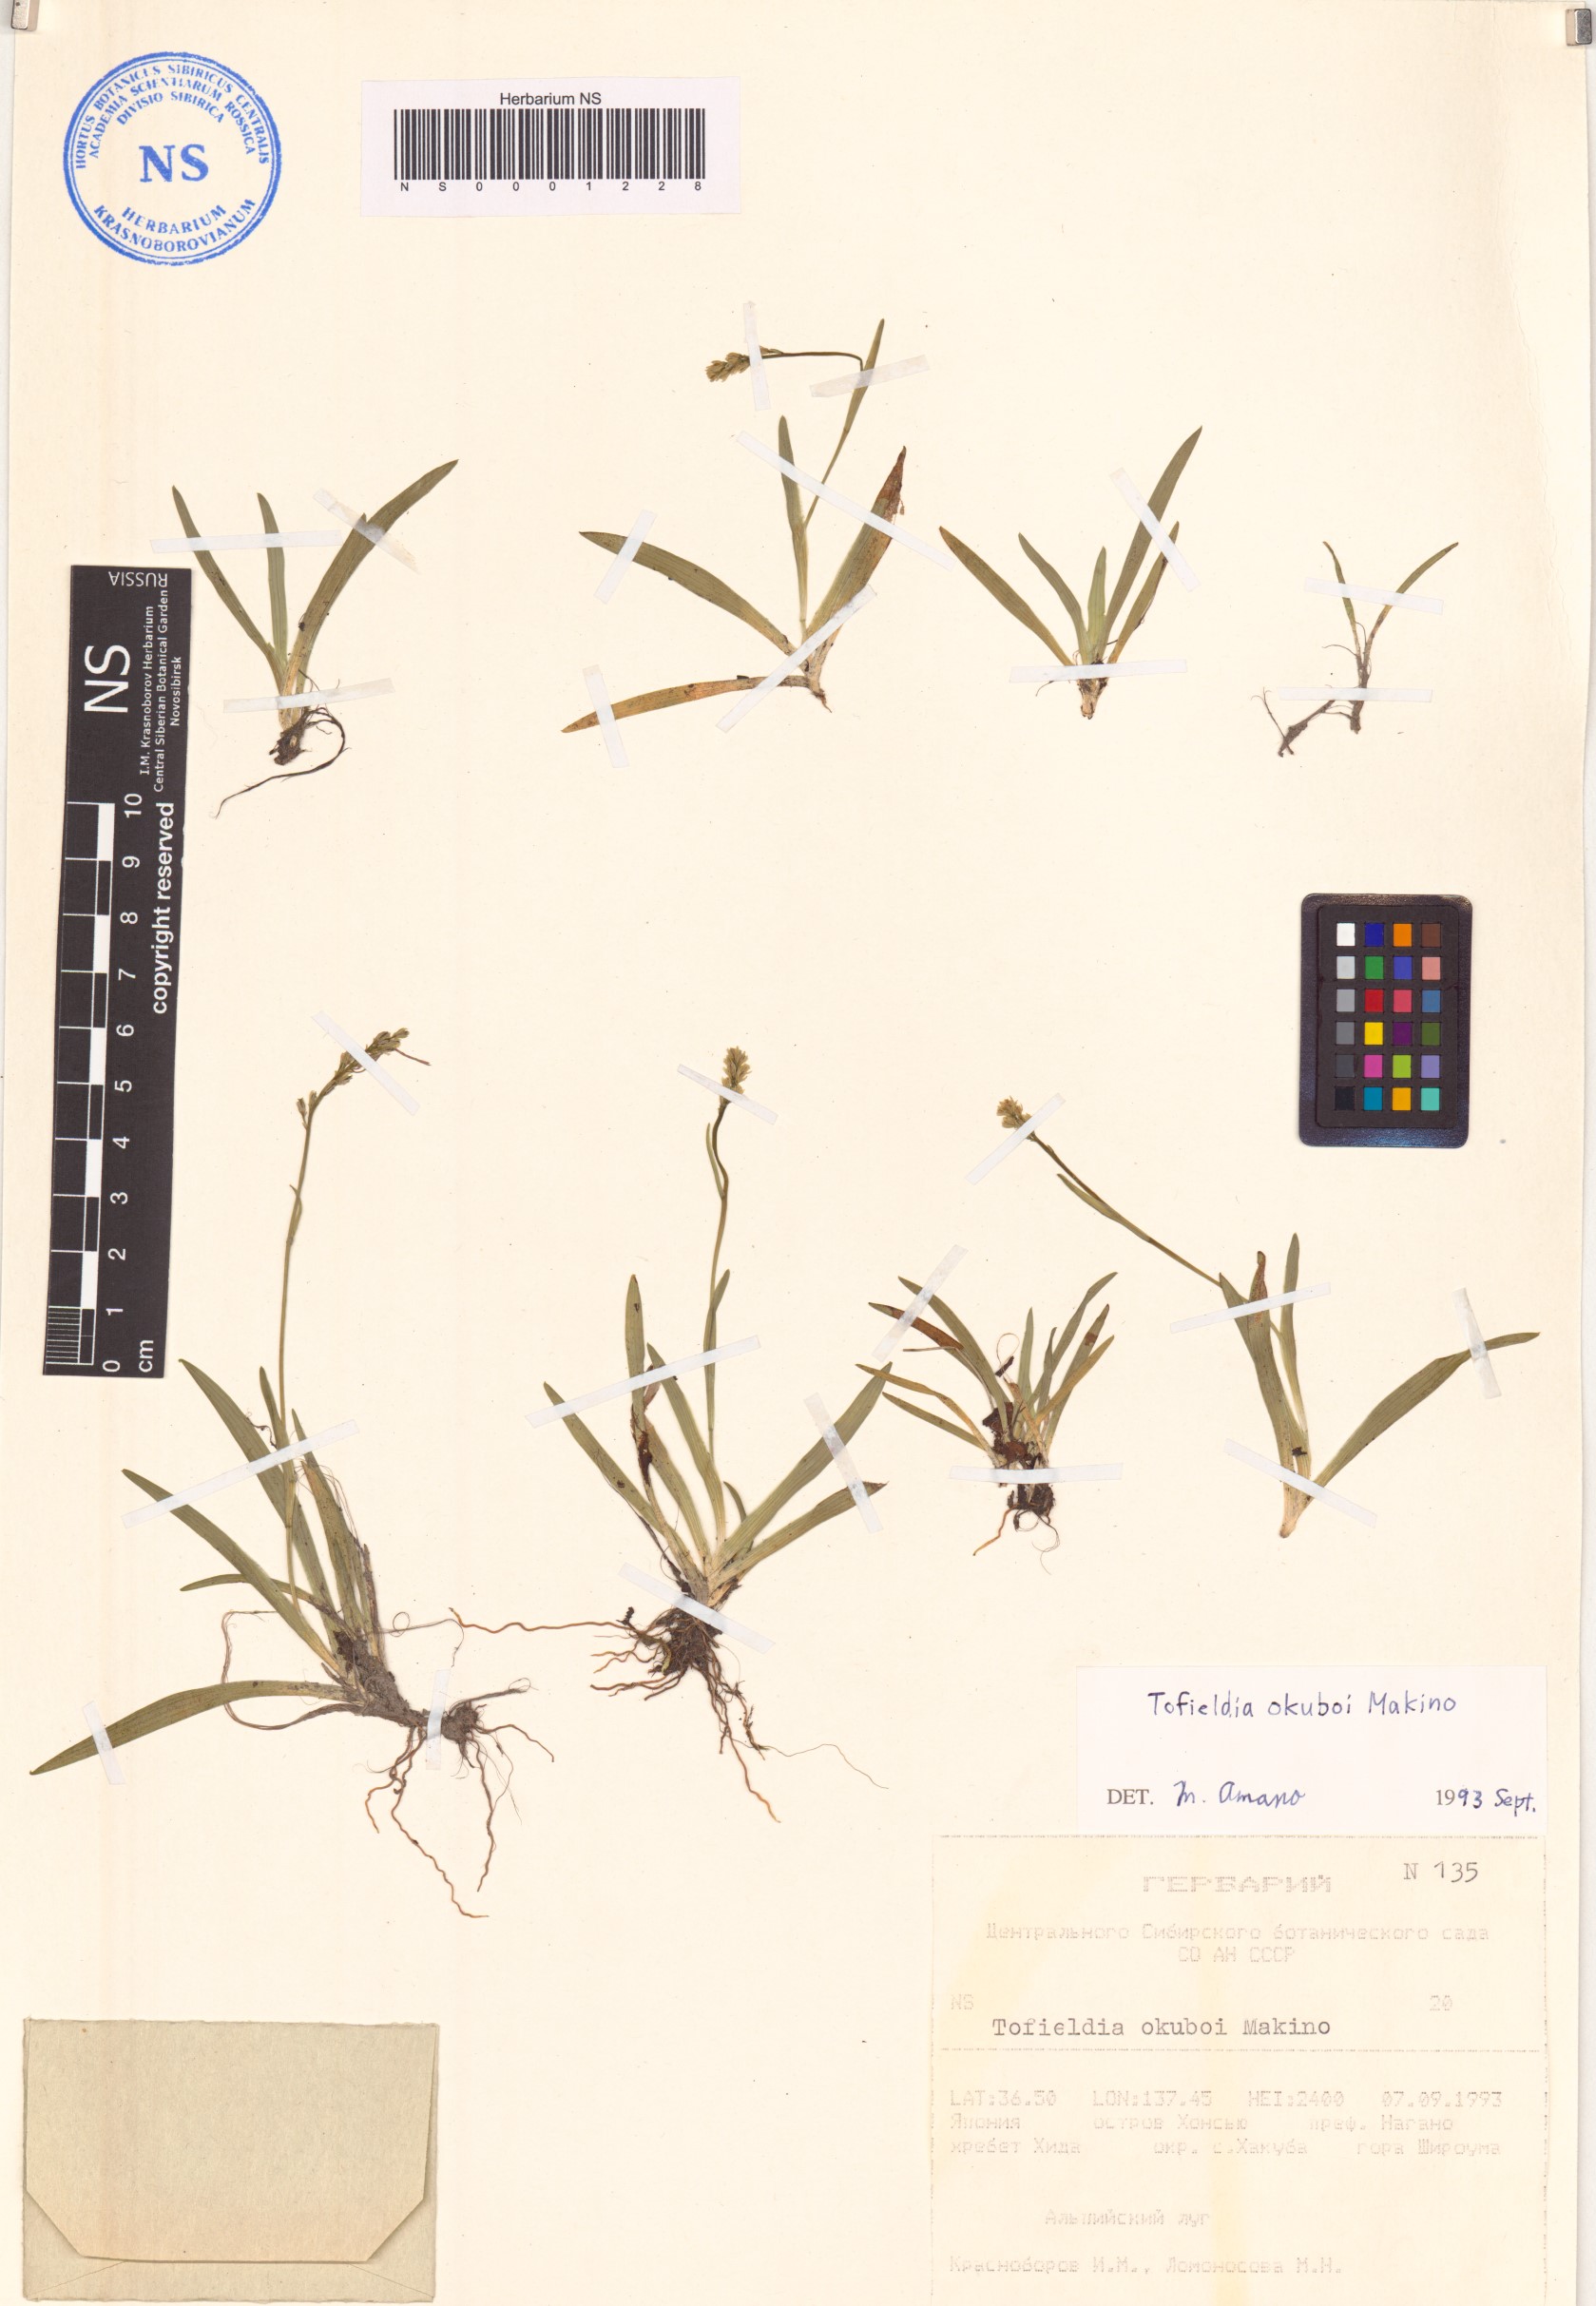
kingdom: Plantae
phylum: Tracheophyta
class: Liliopsida
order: Alismatales
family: Tofieldiaceae
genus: Tofieldia
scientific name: Tofieldia okuboi
